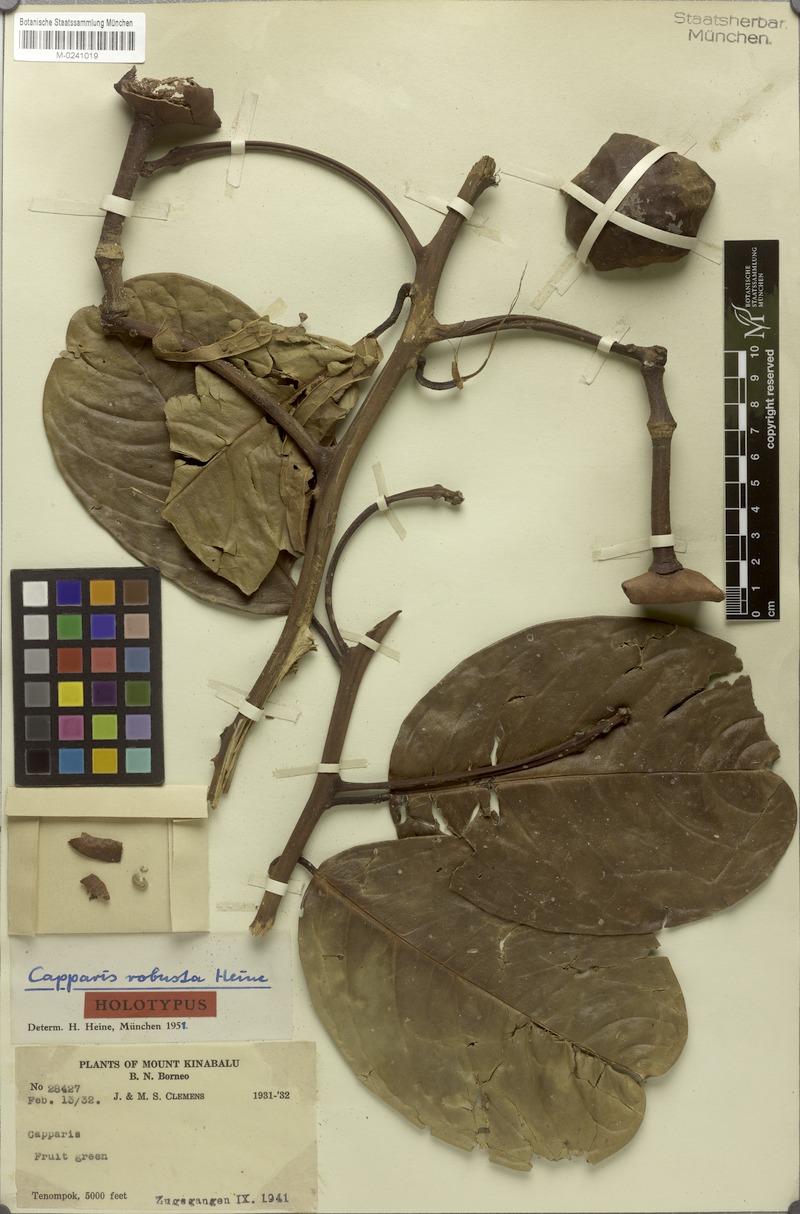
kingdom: Plantae
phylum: Tracheophyta
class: Magnoliopsida
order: Brassicales
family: Capparaceae
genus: Capparis
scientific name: Capparis callophylla
